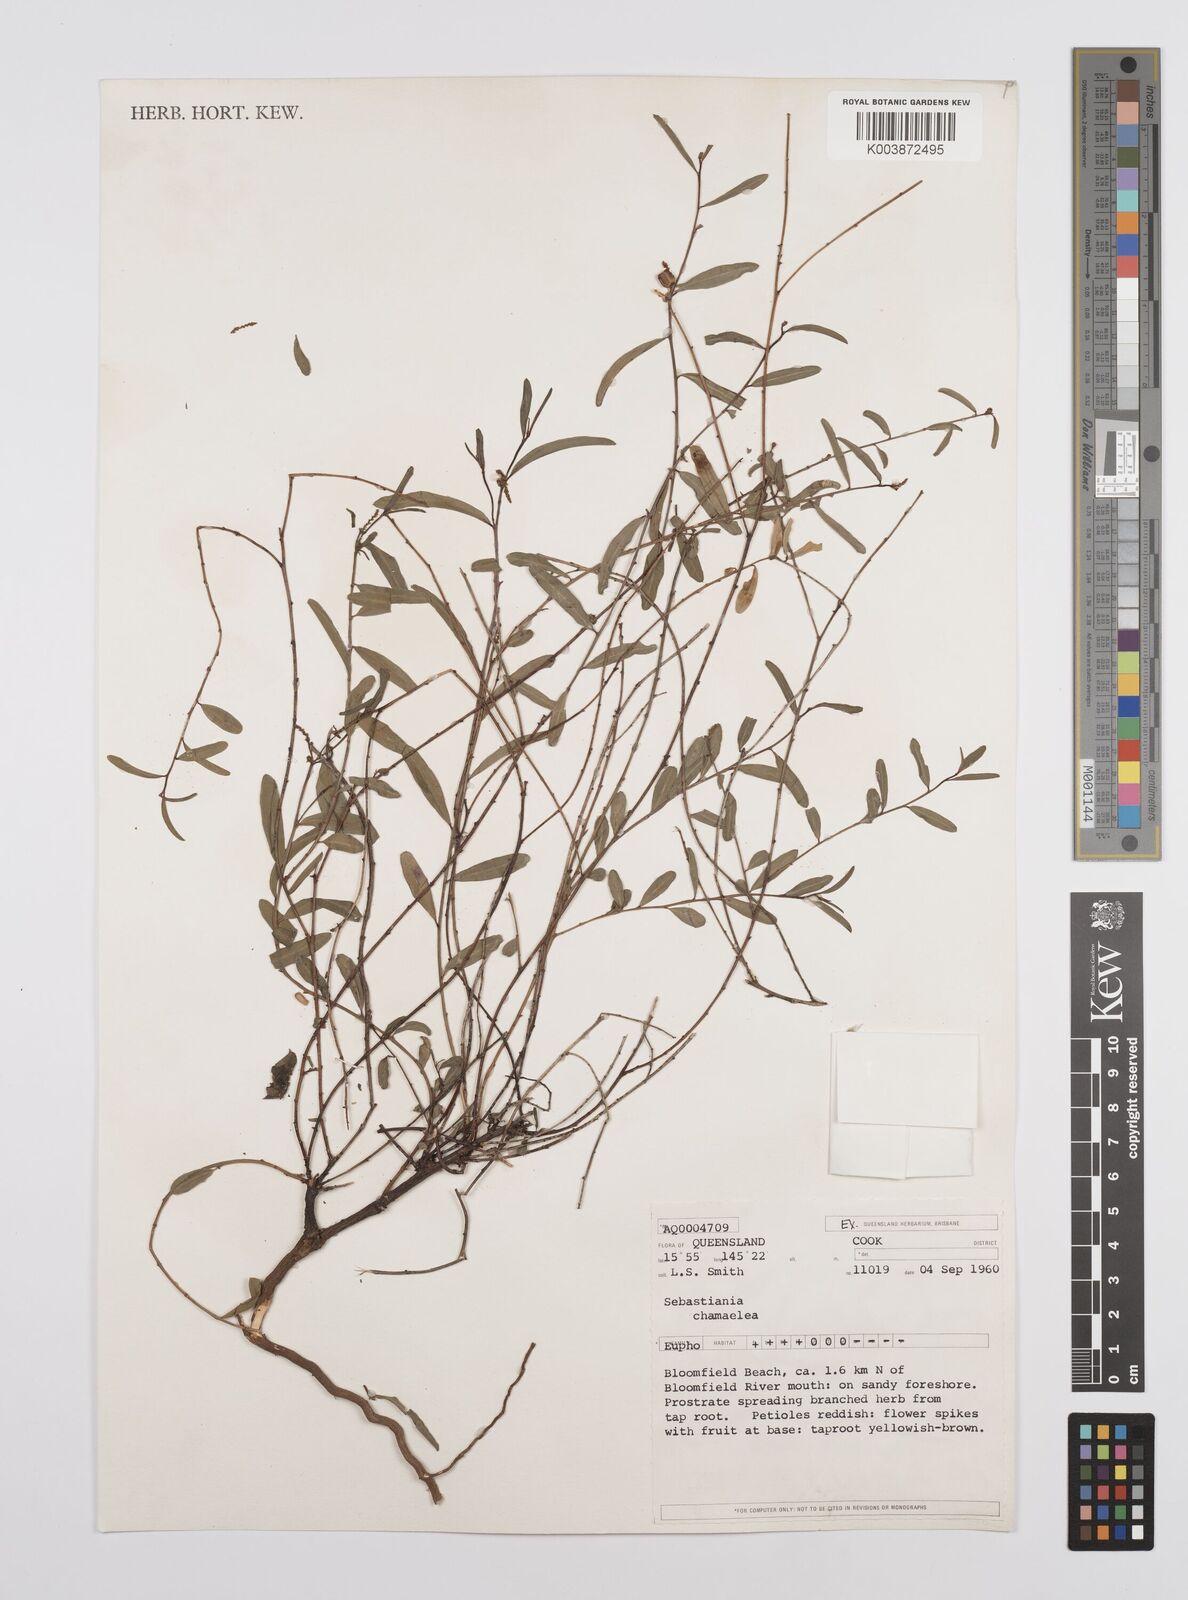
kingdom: Plantae
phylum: Tracheophyta
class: Magnoliopsida
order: Malpighiales
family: Euphorbiaceae
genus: Microstachys
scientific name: Microstachys chamaelea
